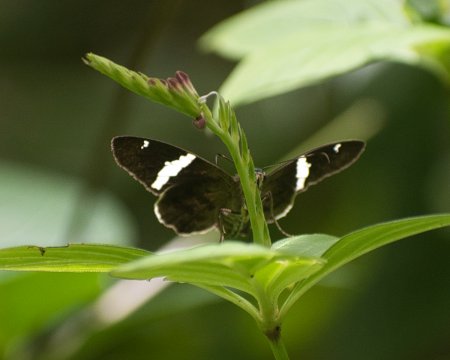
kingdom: Animalia
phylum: Arthropoda
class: Insecta
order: Lepidoptera
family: Hesperiidae
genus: Autochton
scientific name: Autochton neis
